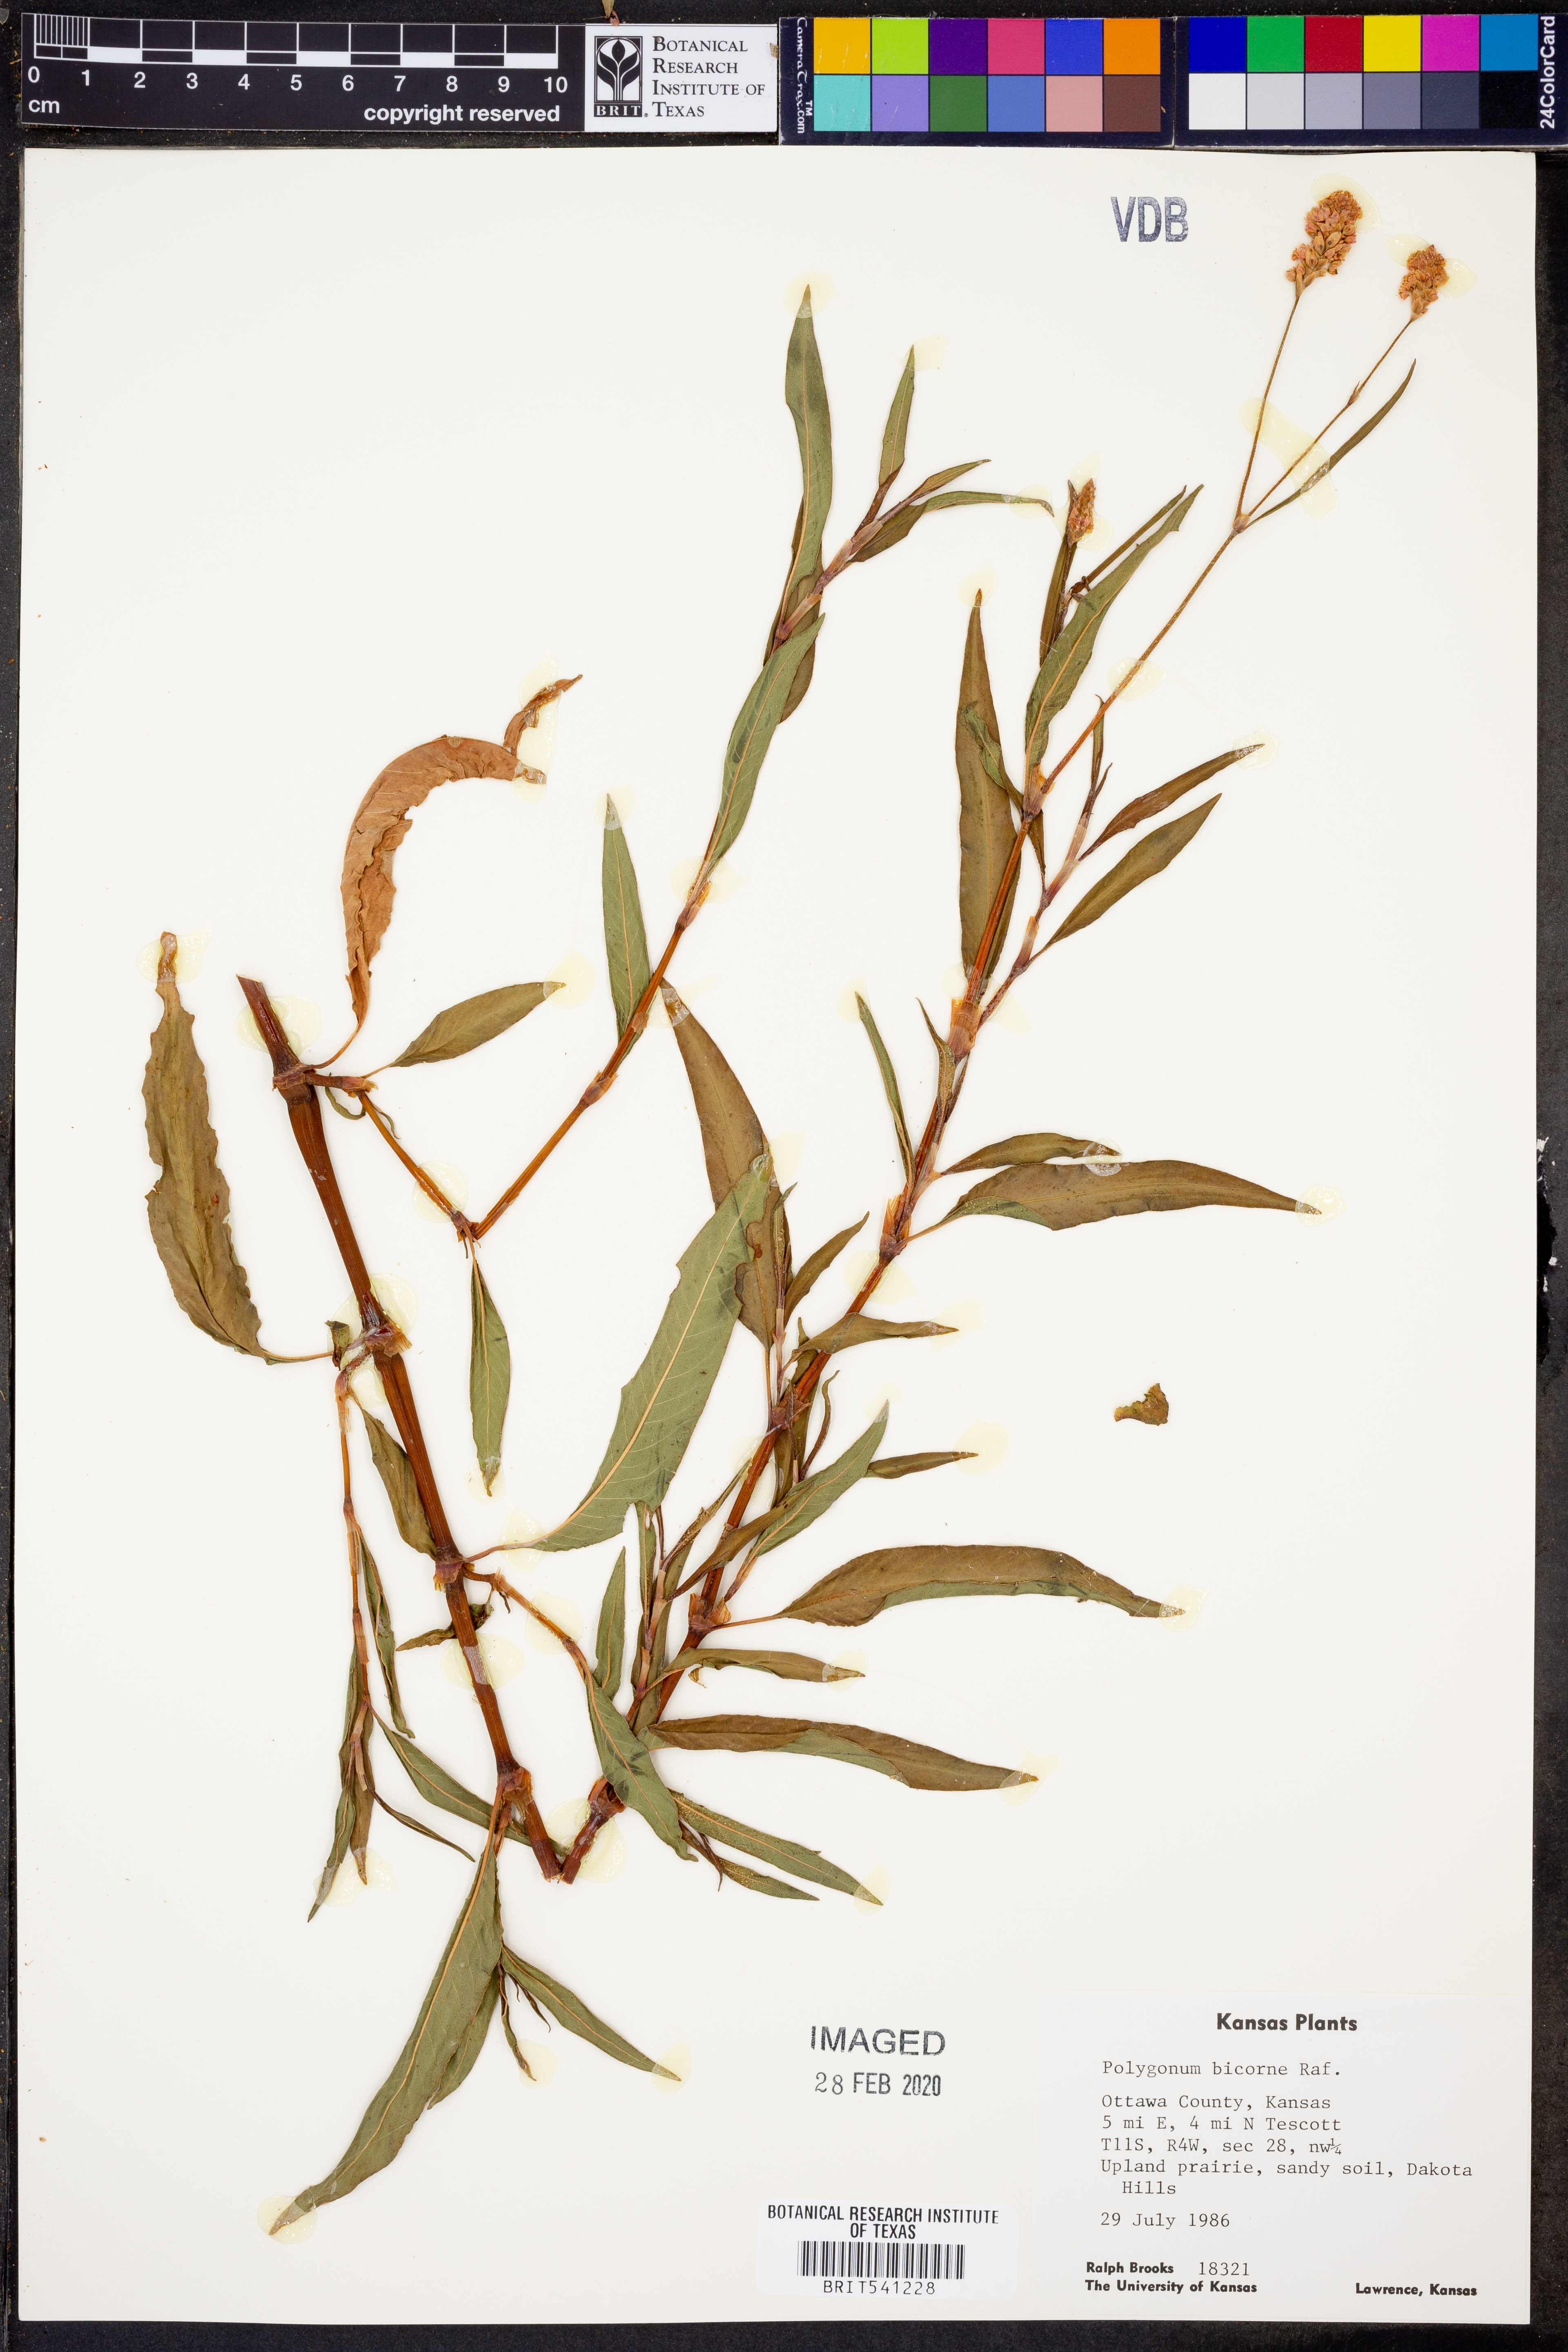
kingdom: Plantae
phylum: Tracheophyta
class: Magnoliopsida
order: Caryophyllales
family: Polygonaceae
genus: Persicaria
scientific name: Persicaria bicornis
